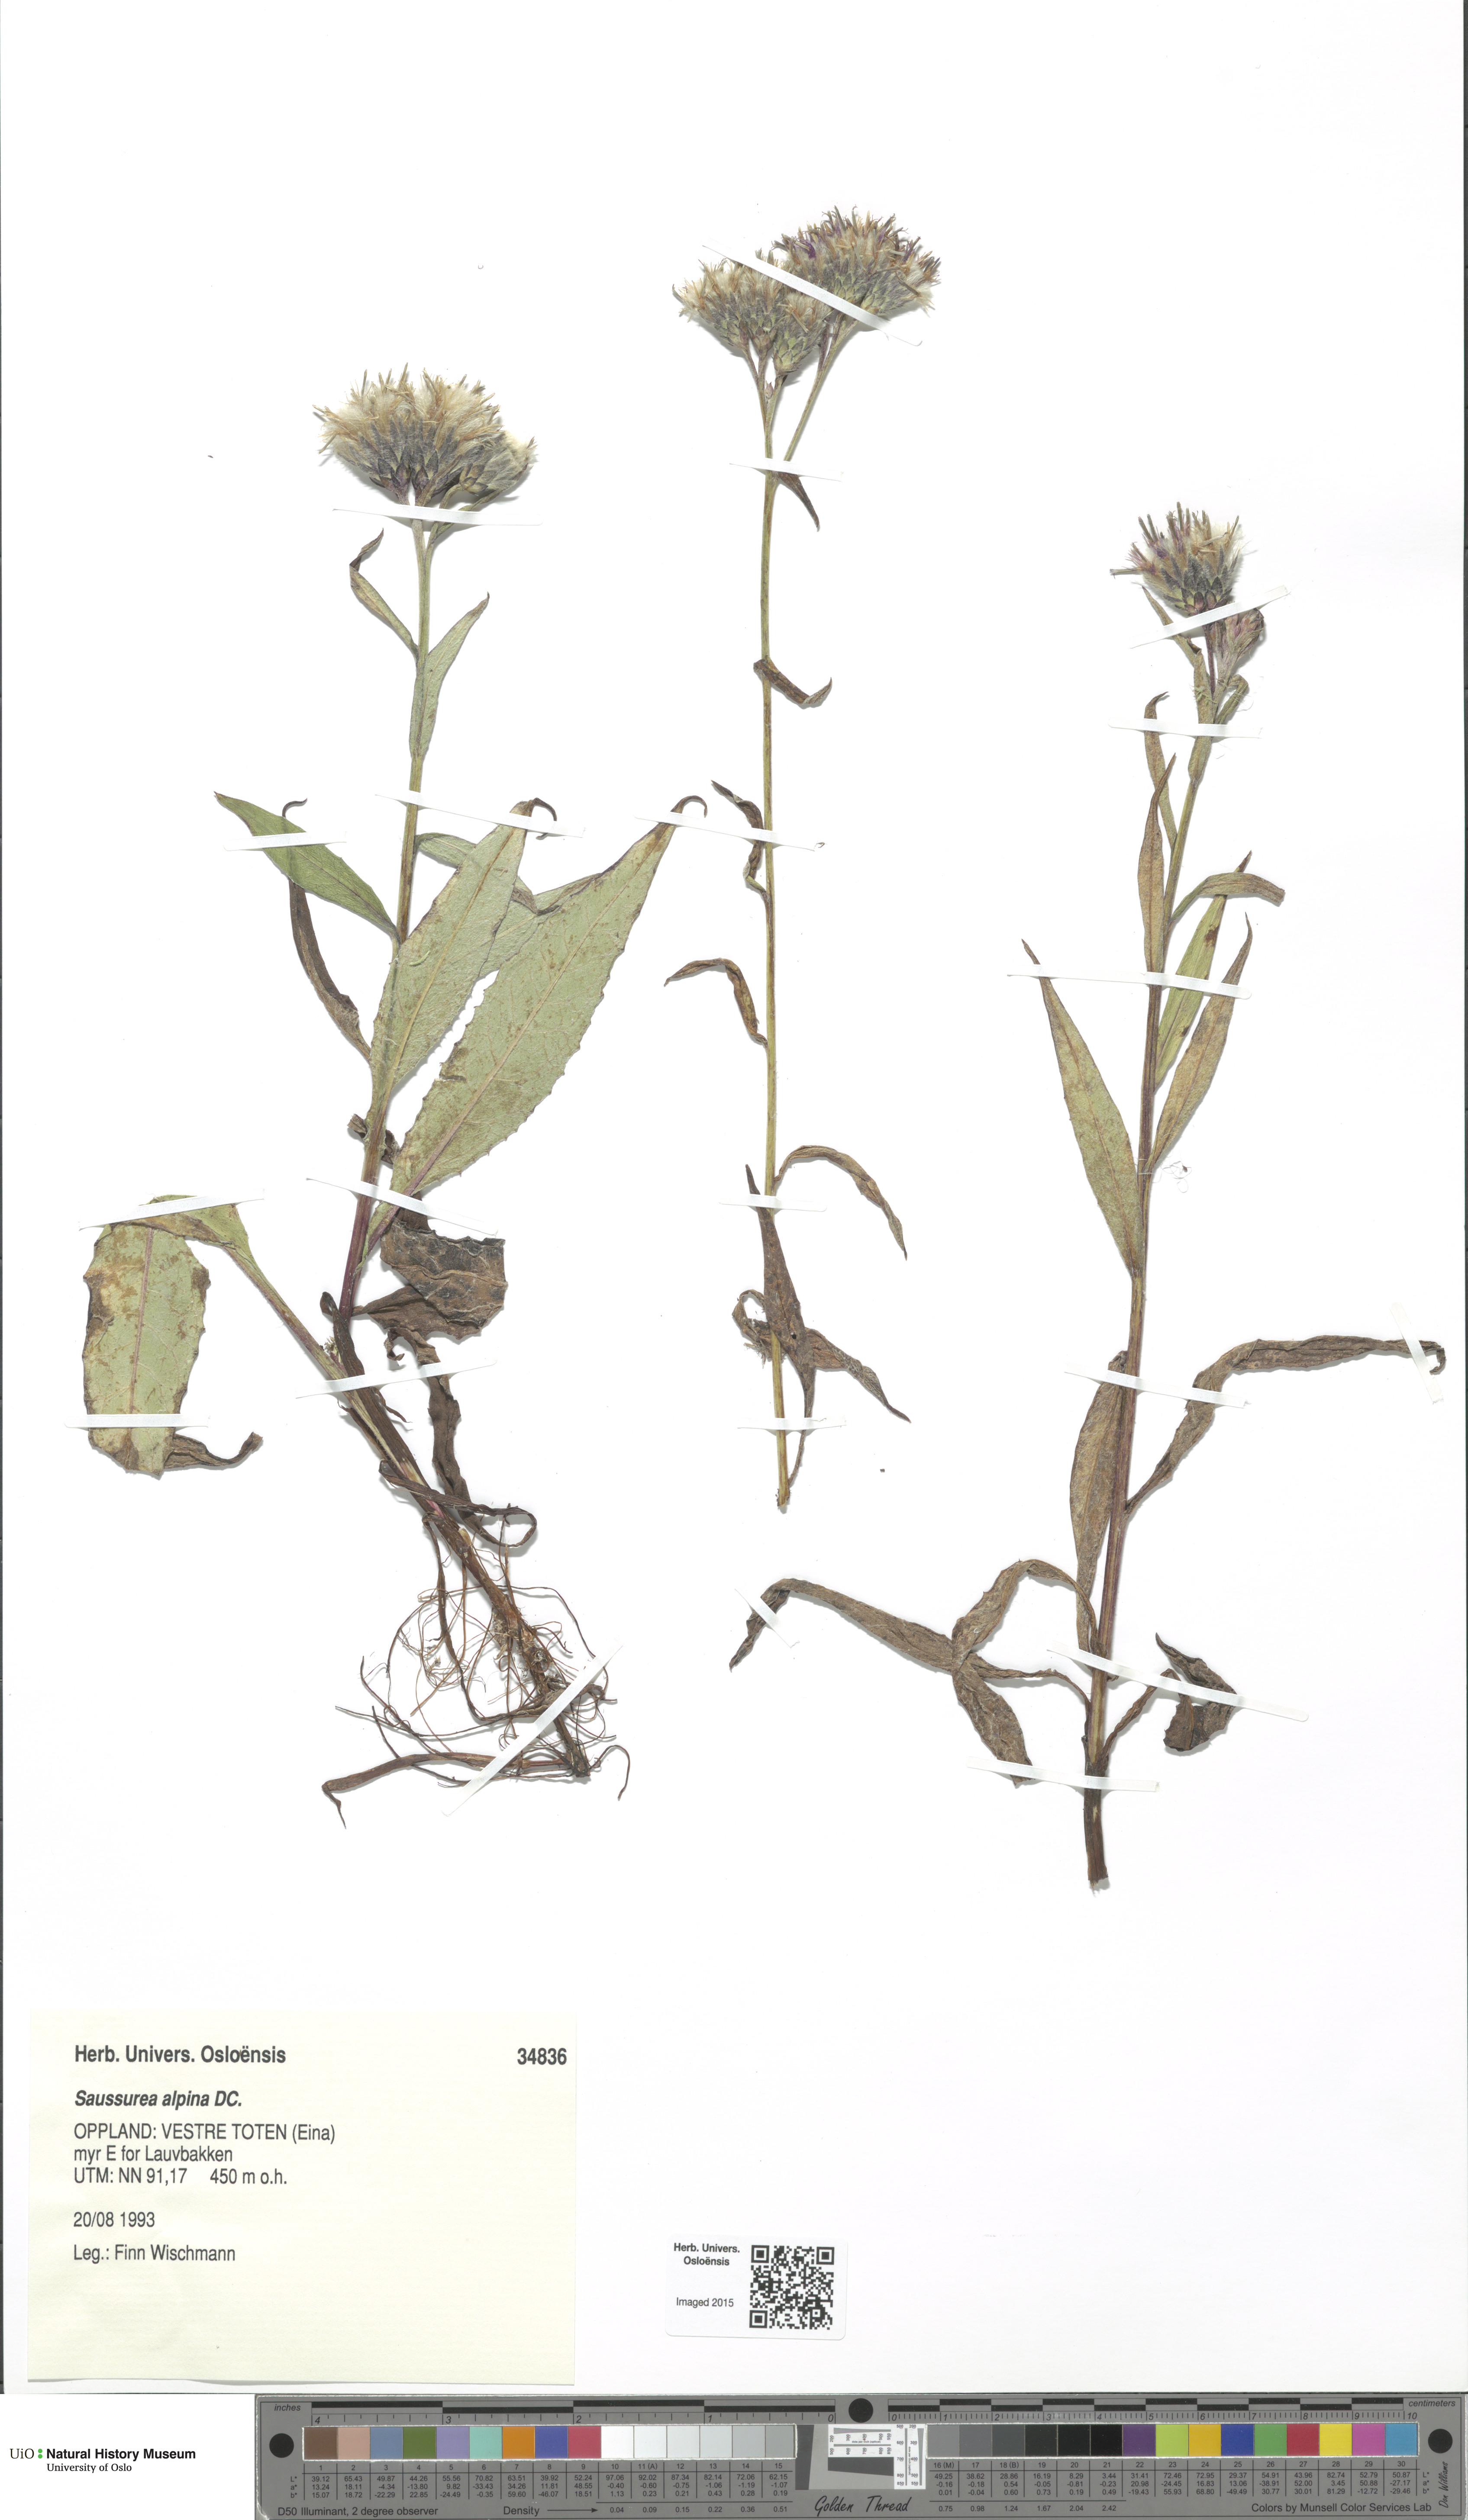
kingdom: Plantae
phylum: Tracheophyta
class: Magnoliopsida
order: Asterales
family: Asteraceae
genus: Saussurea
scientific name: Saussurea alpina
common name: Alpine saw-wort
